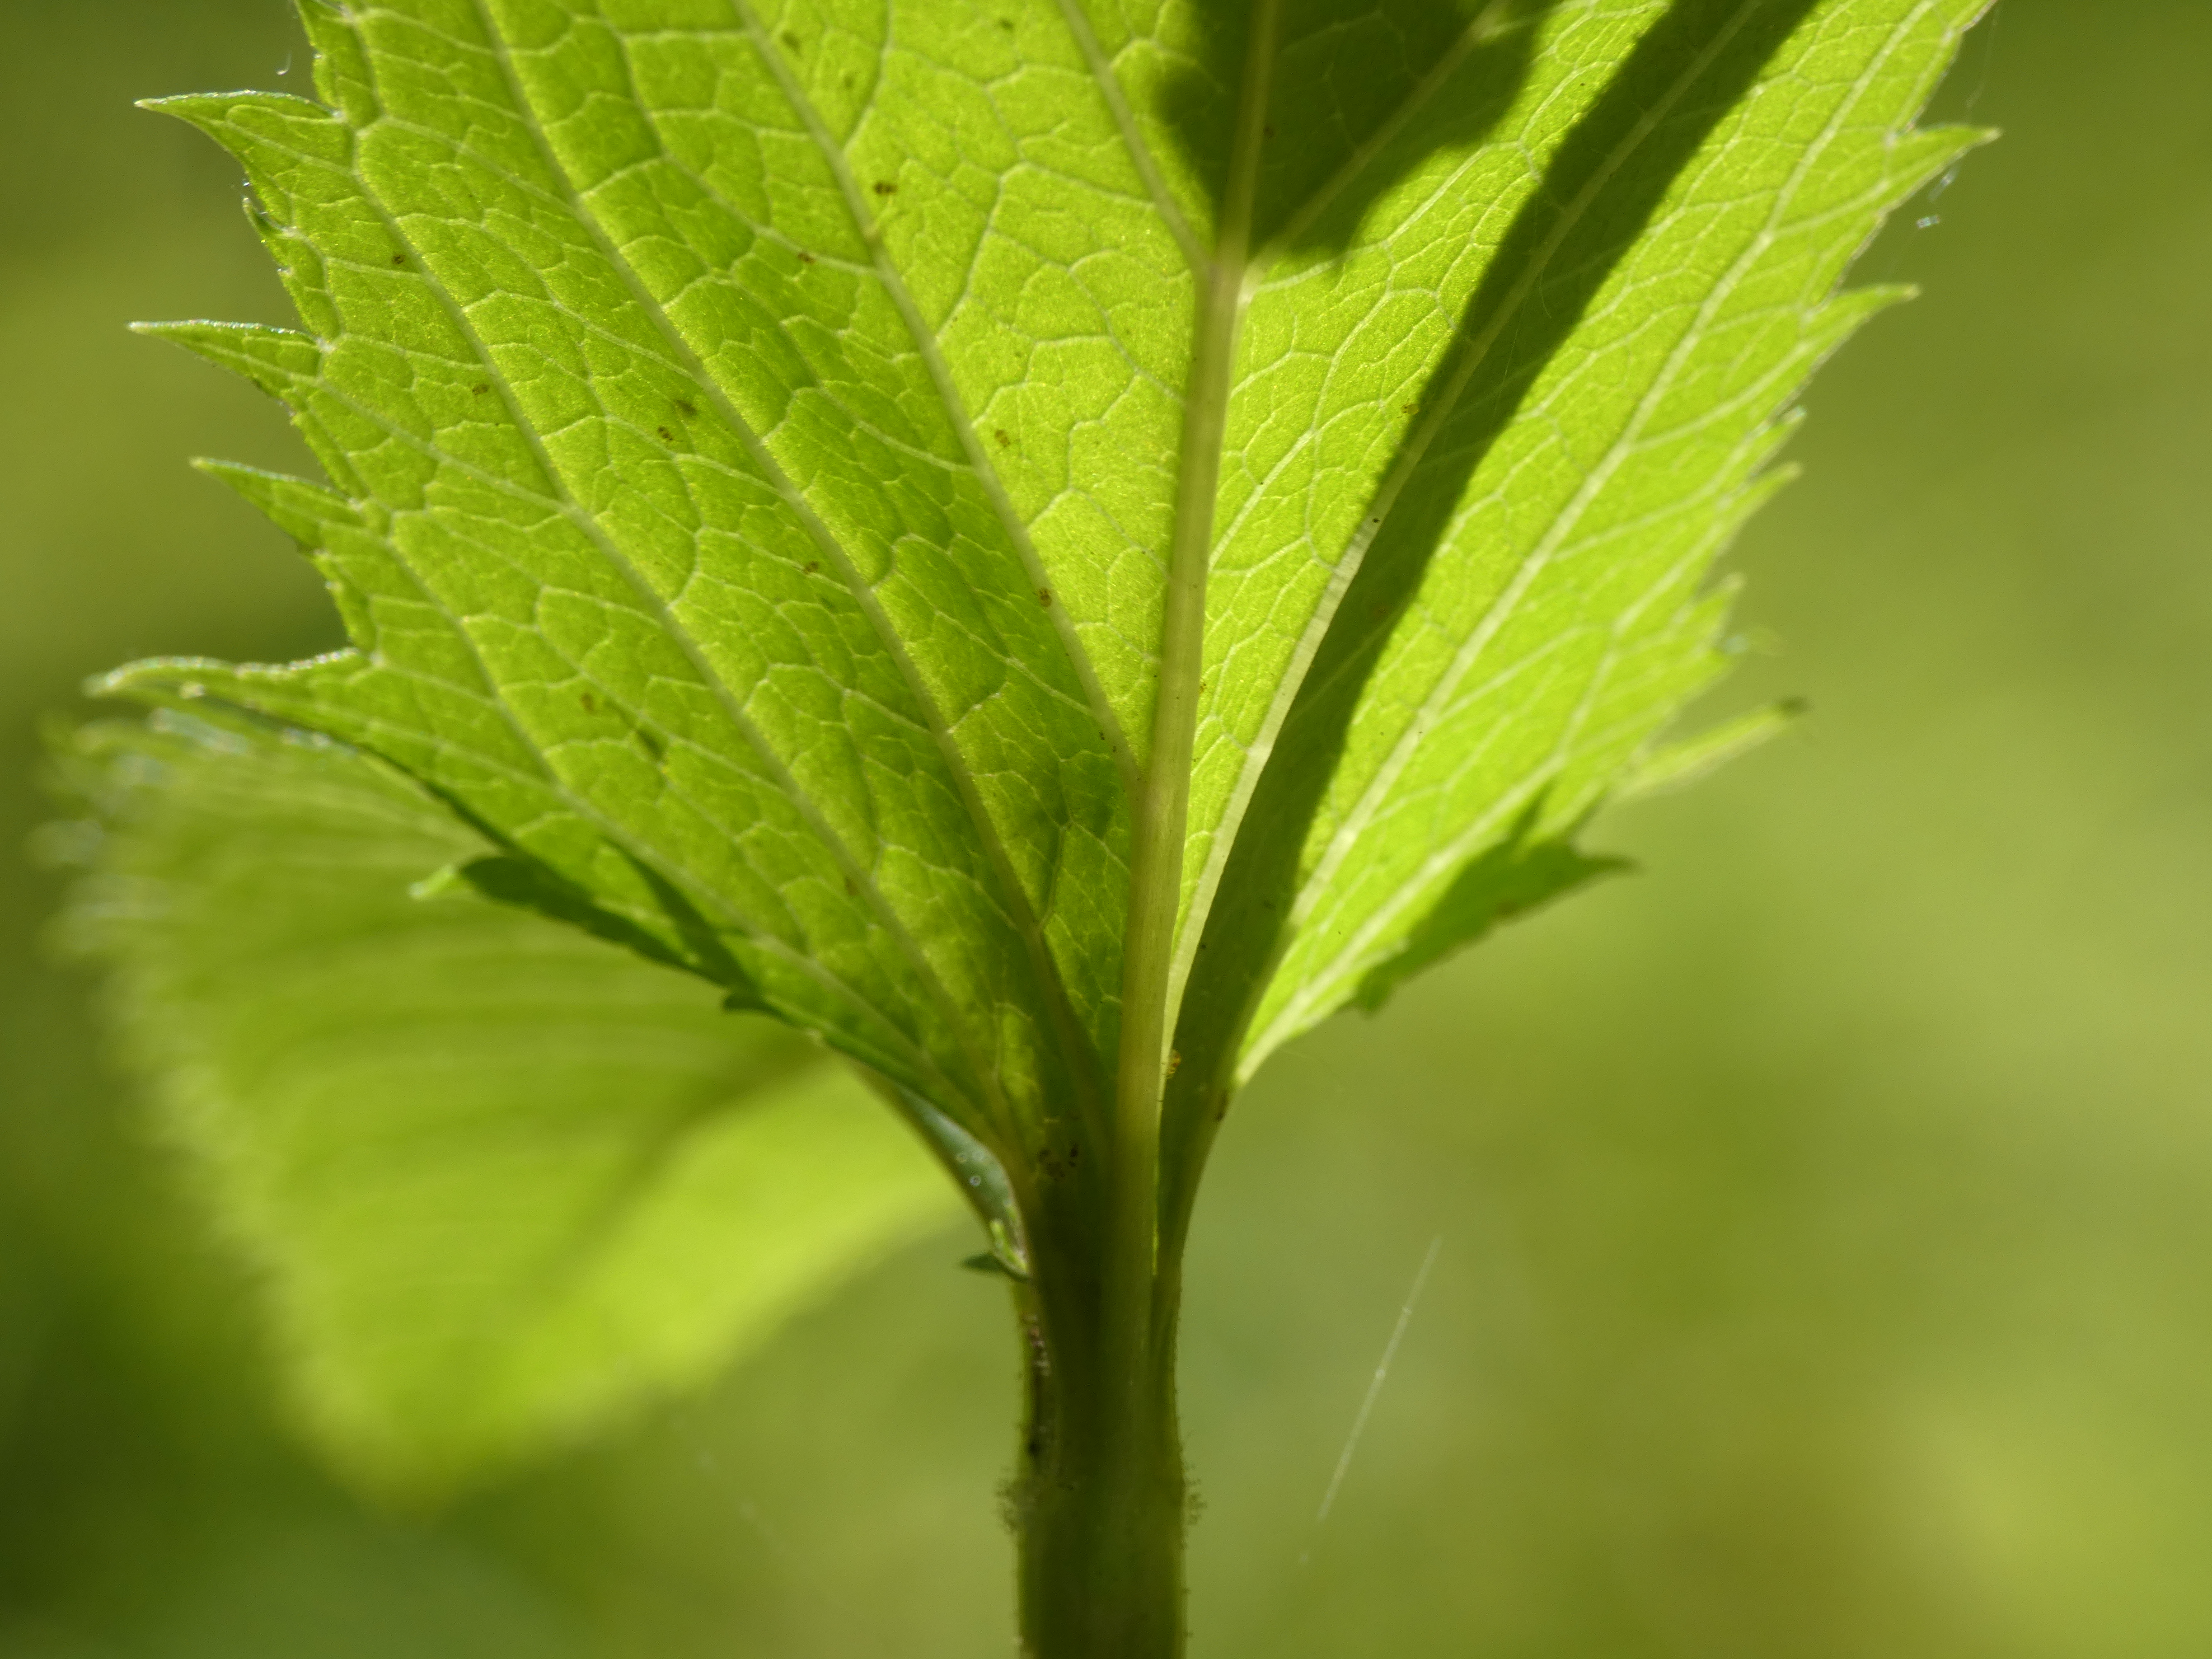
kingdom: Plantae
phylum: Tracheophyta
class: Magnoliopsida
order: Lamiales
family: Scrophulariaceae
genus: Scrophularia
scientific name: Scrophularia nodosa
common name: Knoldet brunrod
